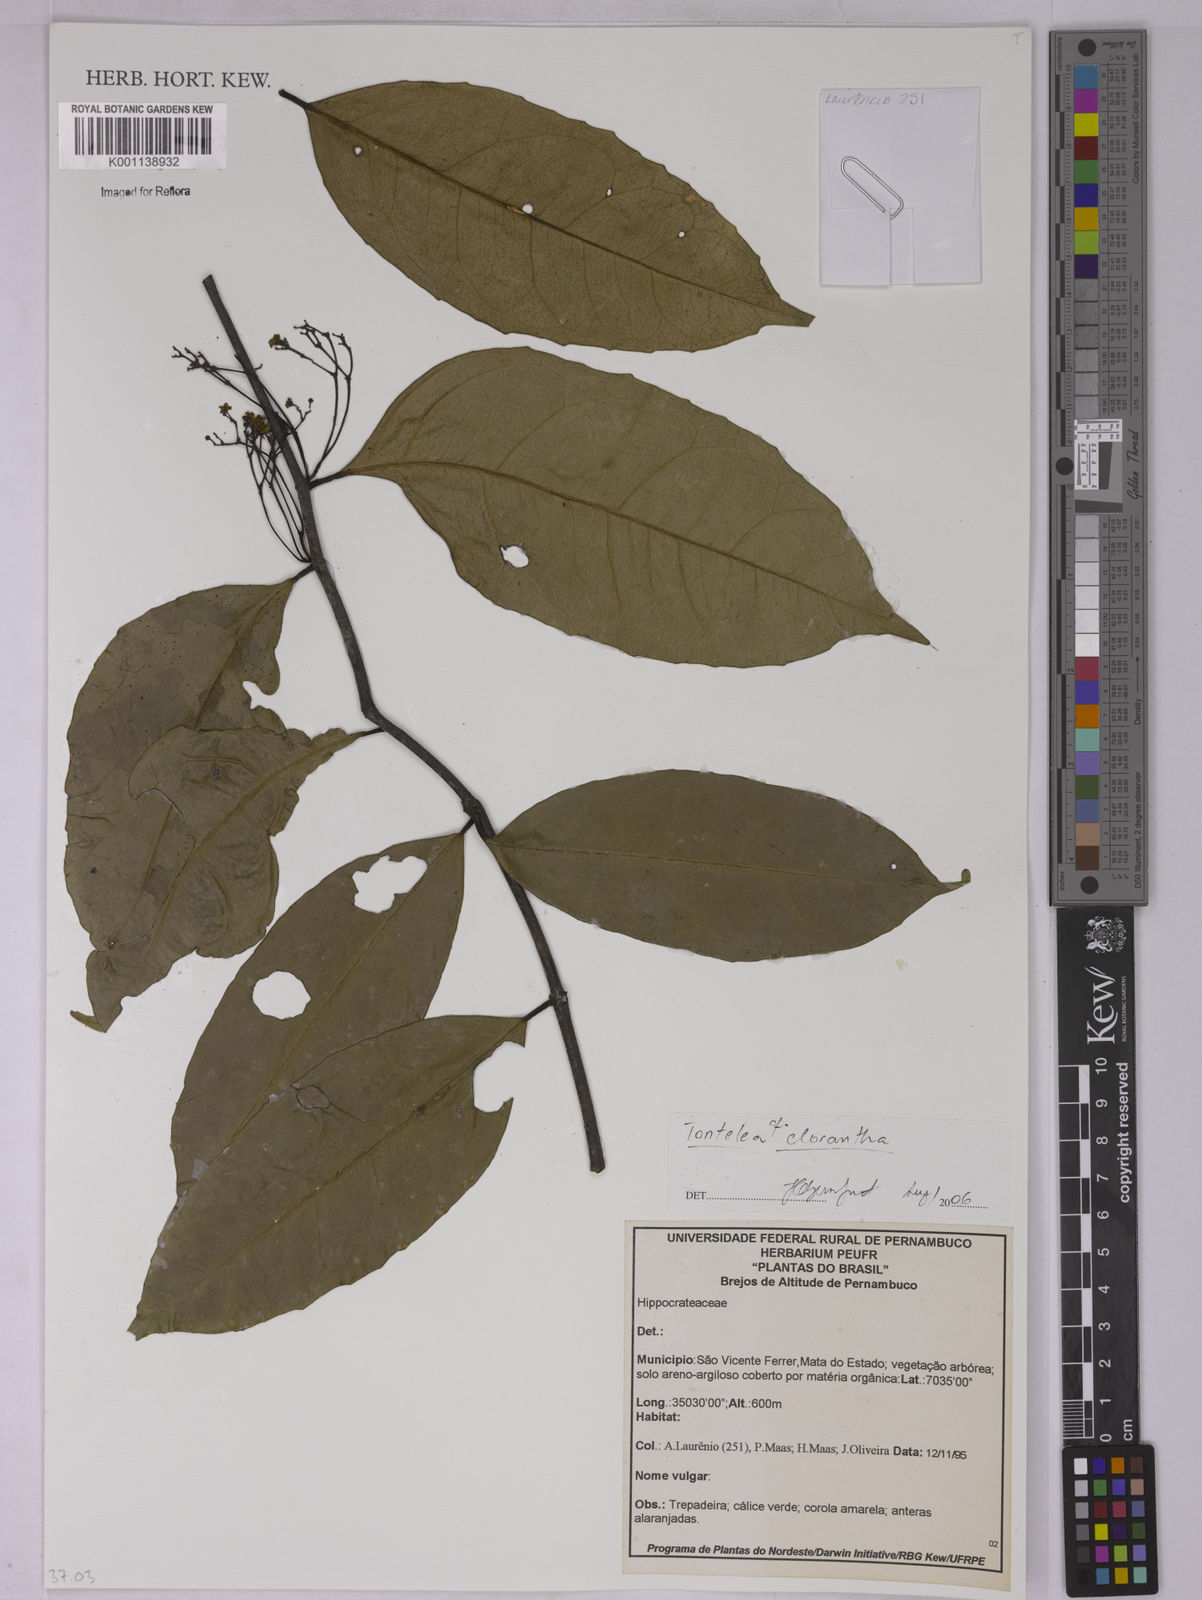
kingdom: Plantae
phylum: Tracheophyta
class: Magnoliopsida
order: Celastrales
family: Celastraceae
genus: Tontelea
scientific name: Tontelea laxiflora
